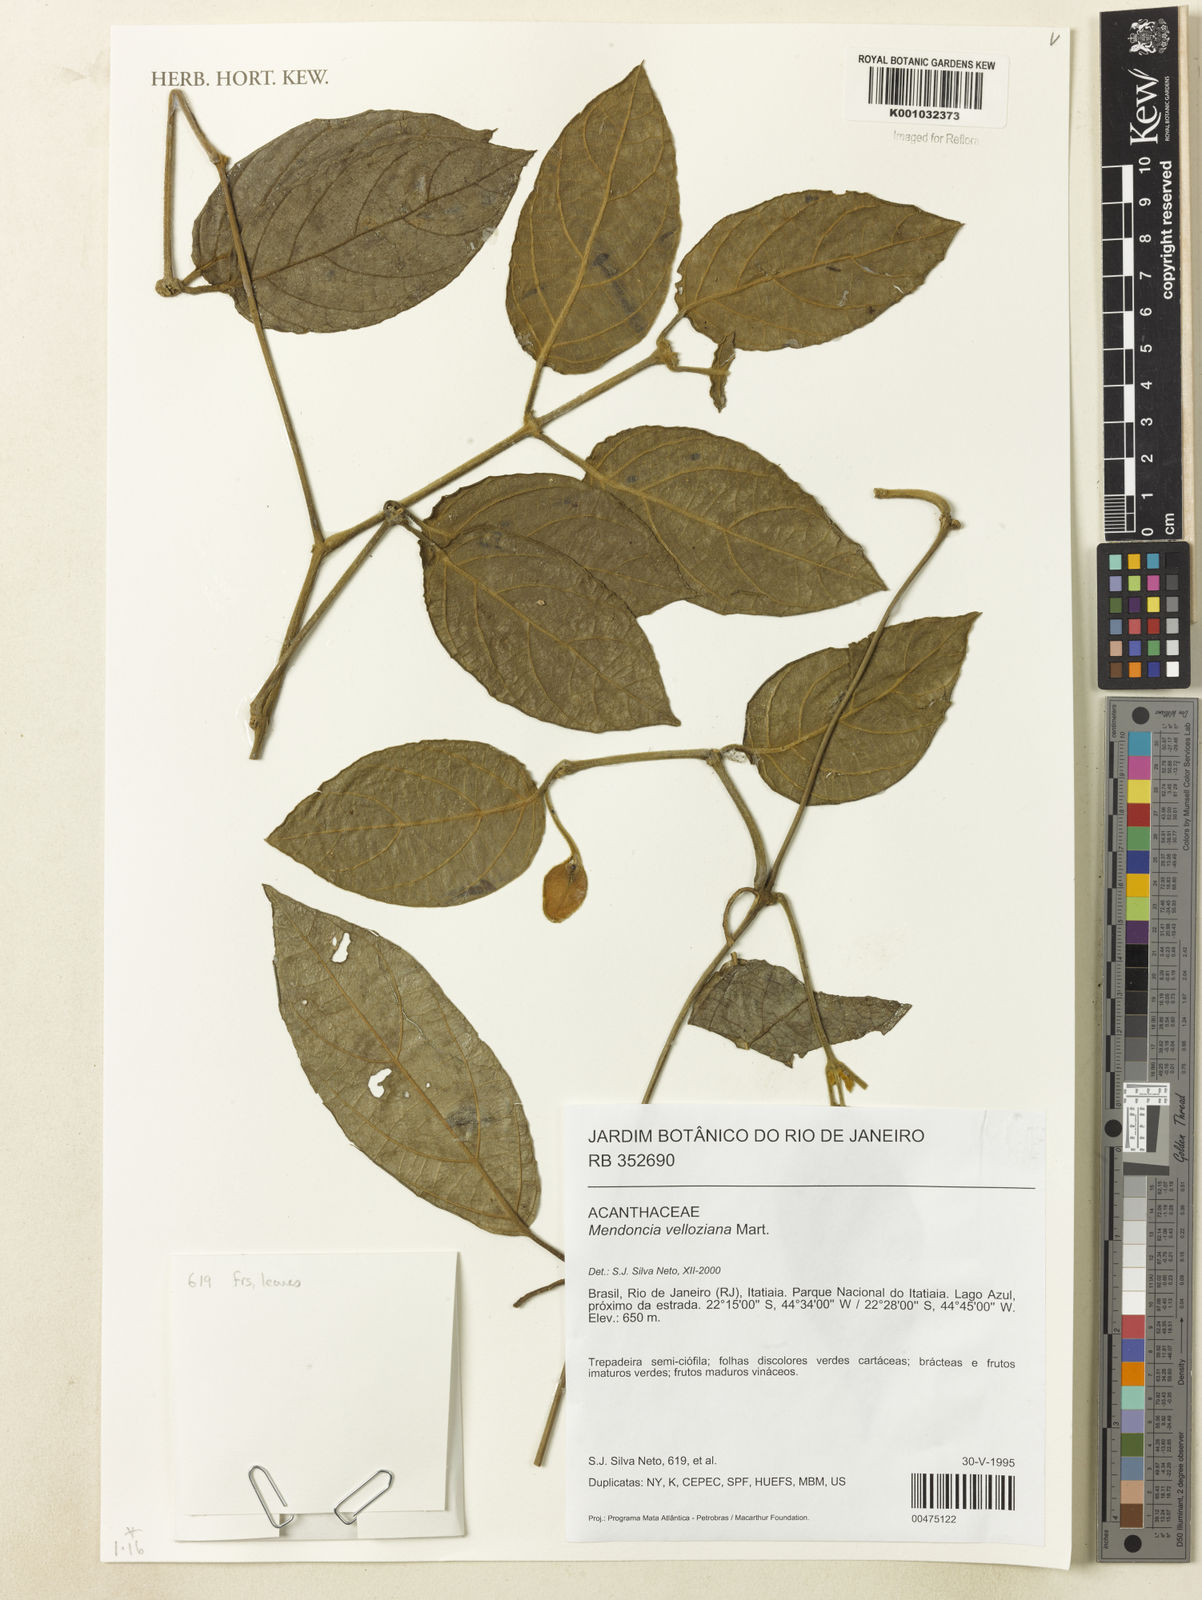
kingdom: Plantae
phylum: Tracheophyta
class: Magnoliopsida
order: Lamiales
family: Acanthaceae
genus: Mendoncia
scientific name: Mendoncia velloziana
